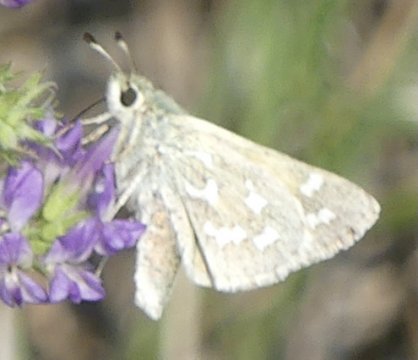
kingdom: Animalia
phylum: Arthropoda
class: Insecta
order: Lepidoptera
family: Hesperiidae
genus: Hesperia
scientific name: Hesperia comma
